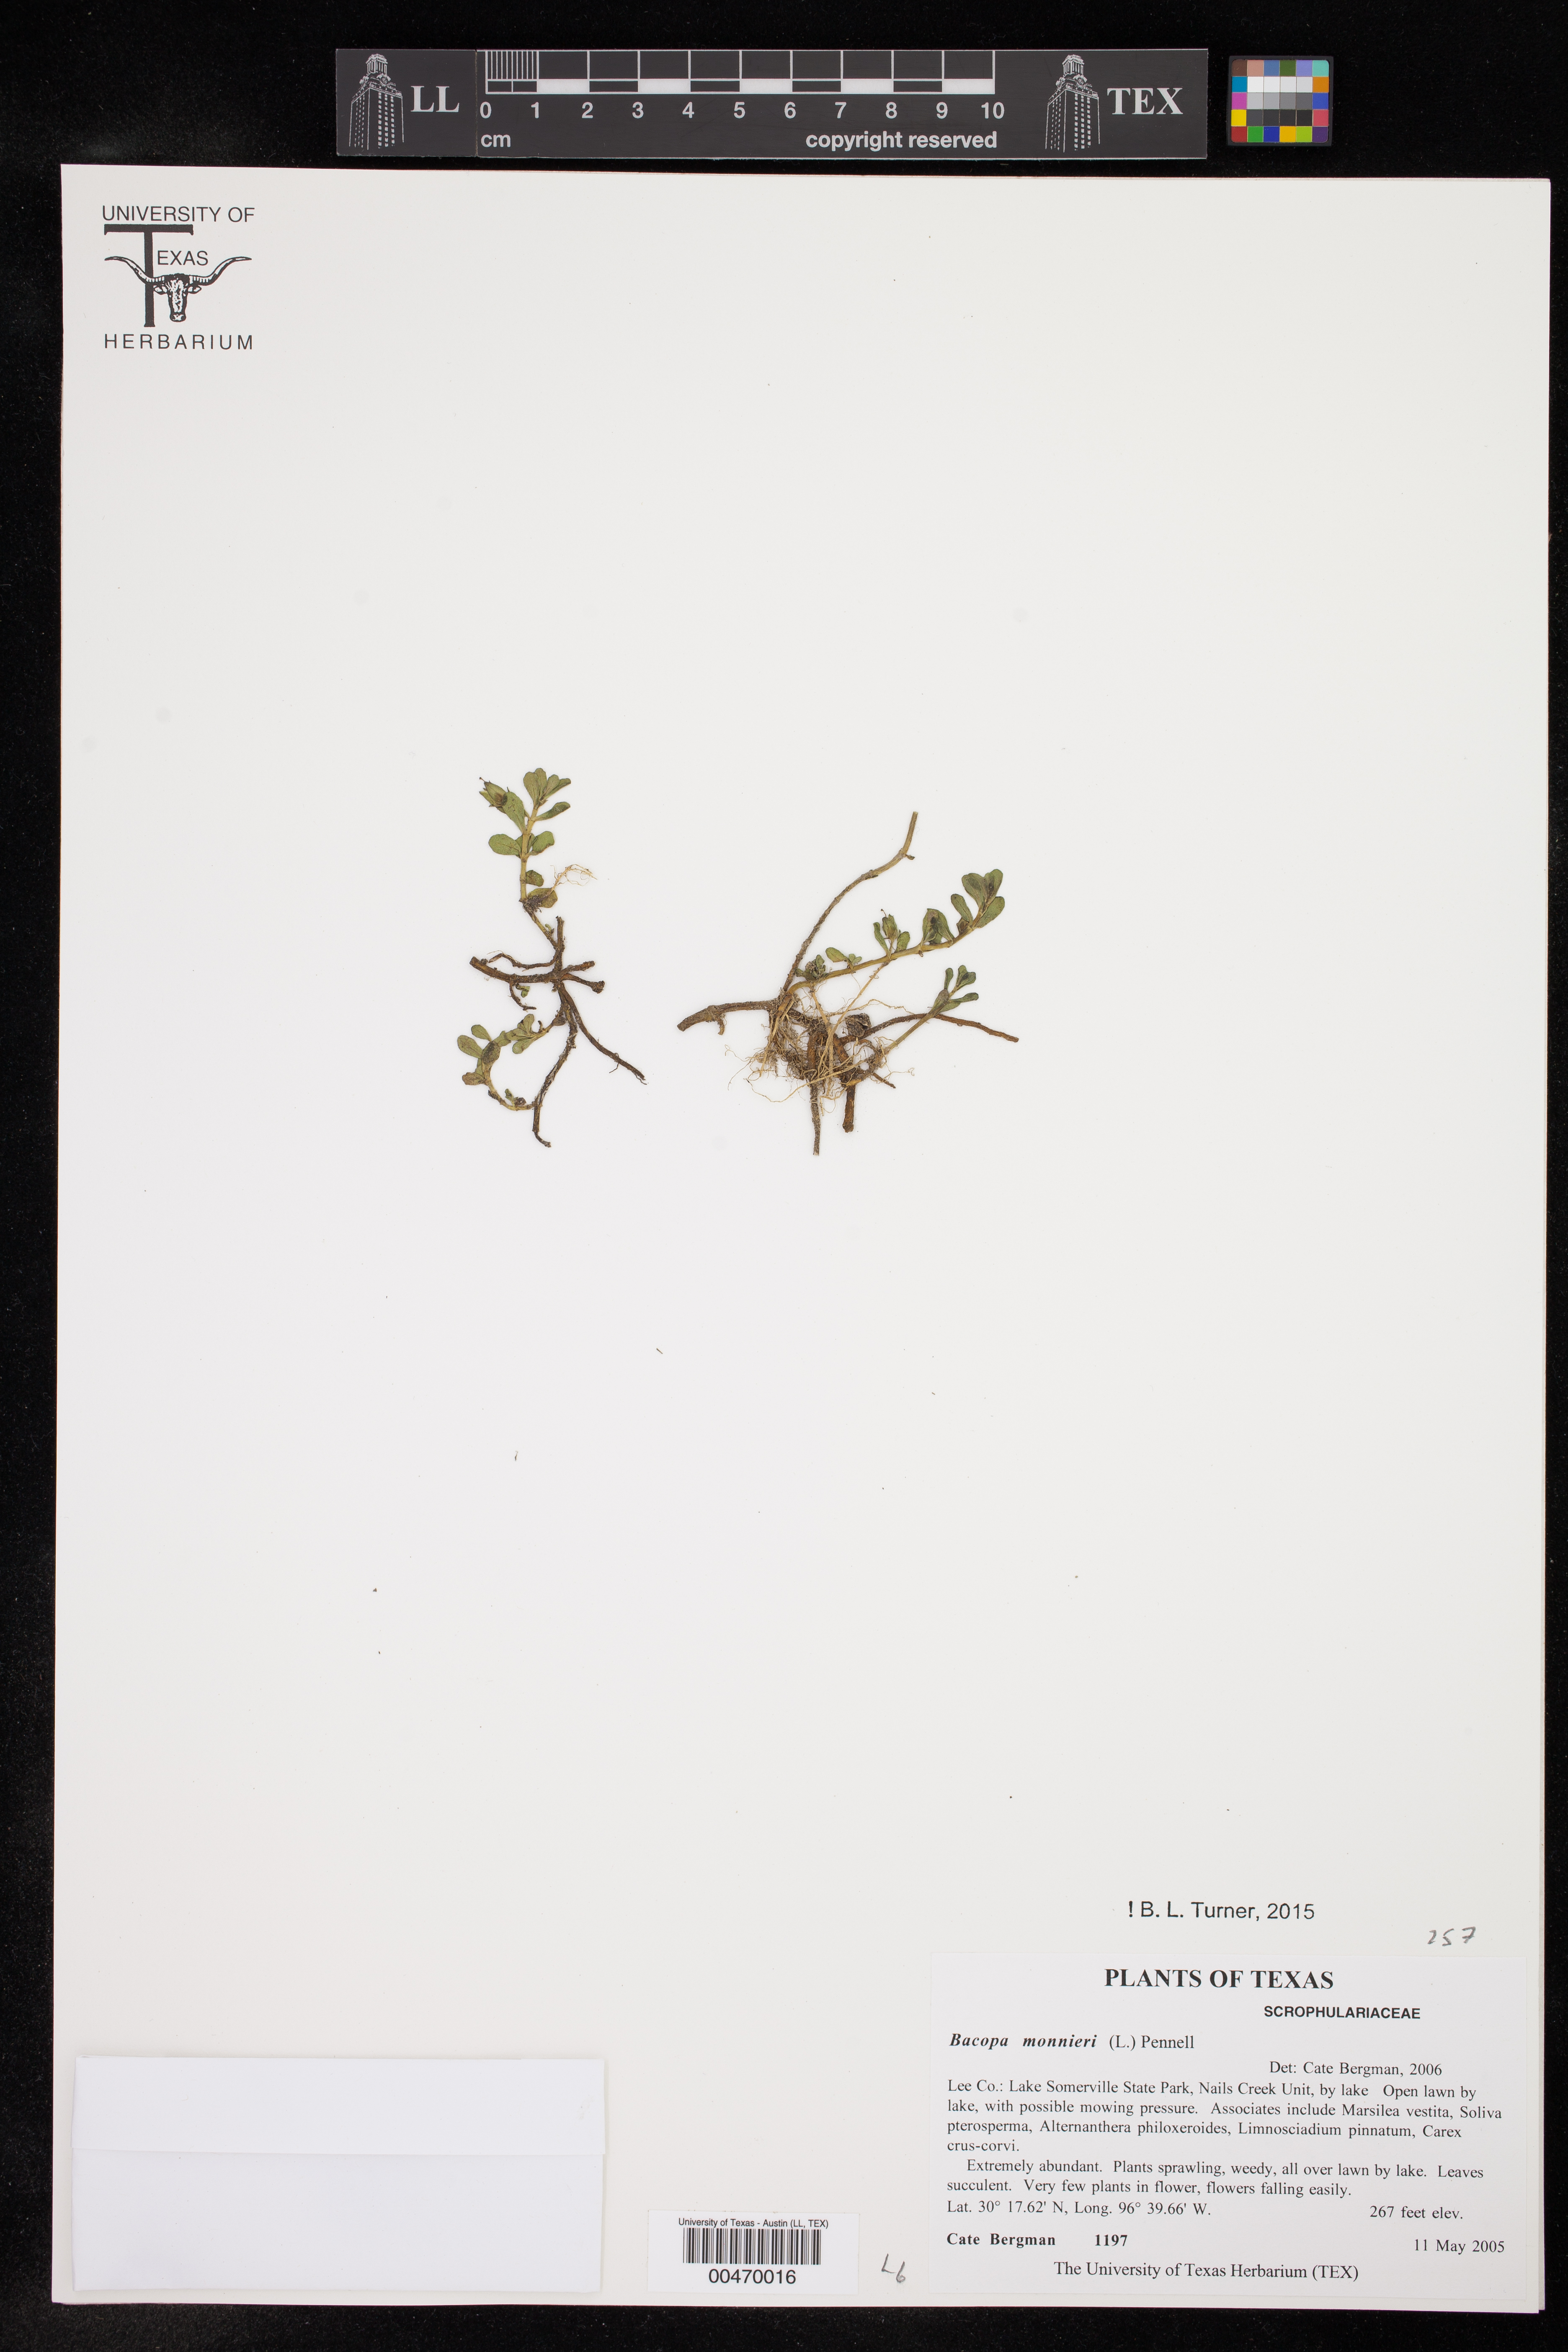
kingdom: Plantae
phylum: Tracheophyta
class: Magnoliopsida
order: Lamiales
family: Plantaginaceae
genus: Bacopa
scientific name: Bacopa monnieri
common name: Indian-pennywort
